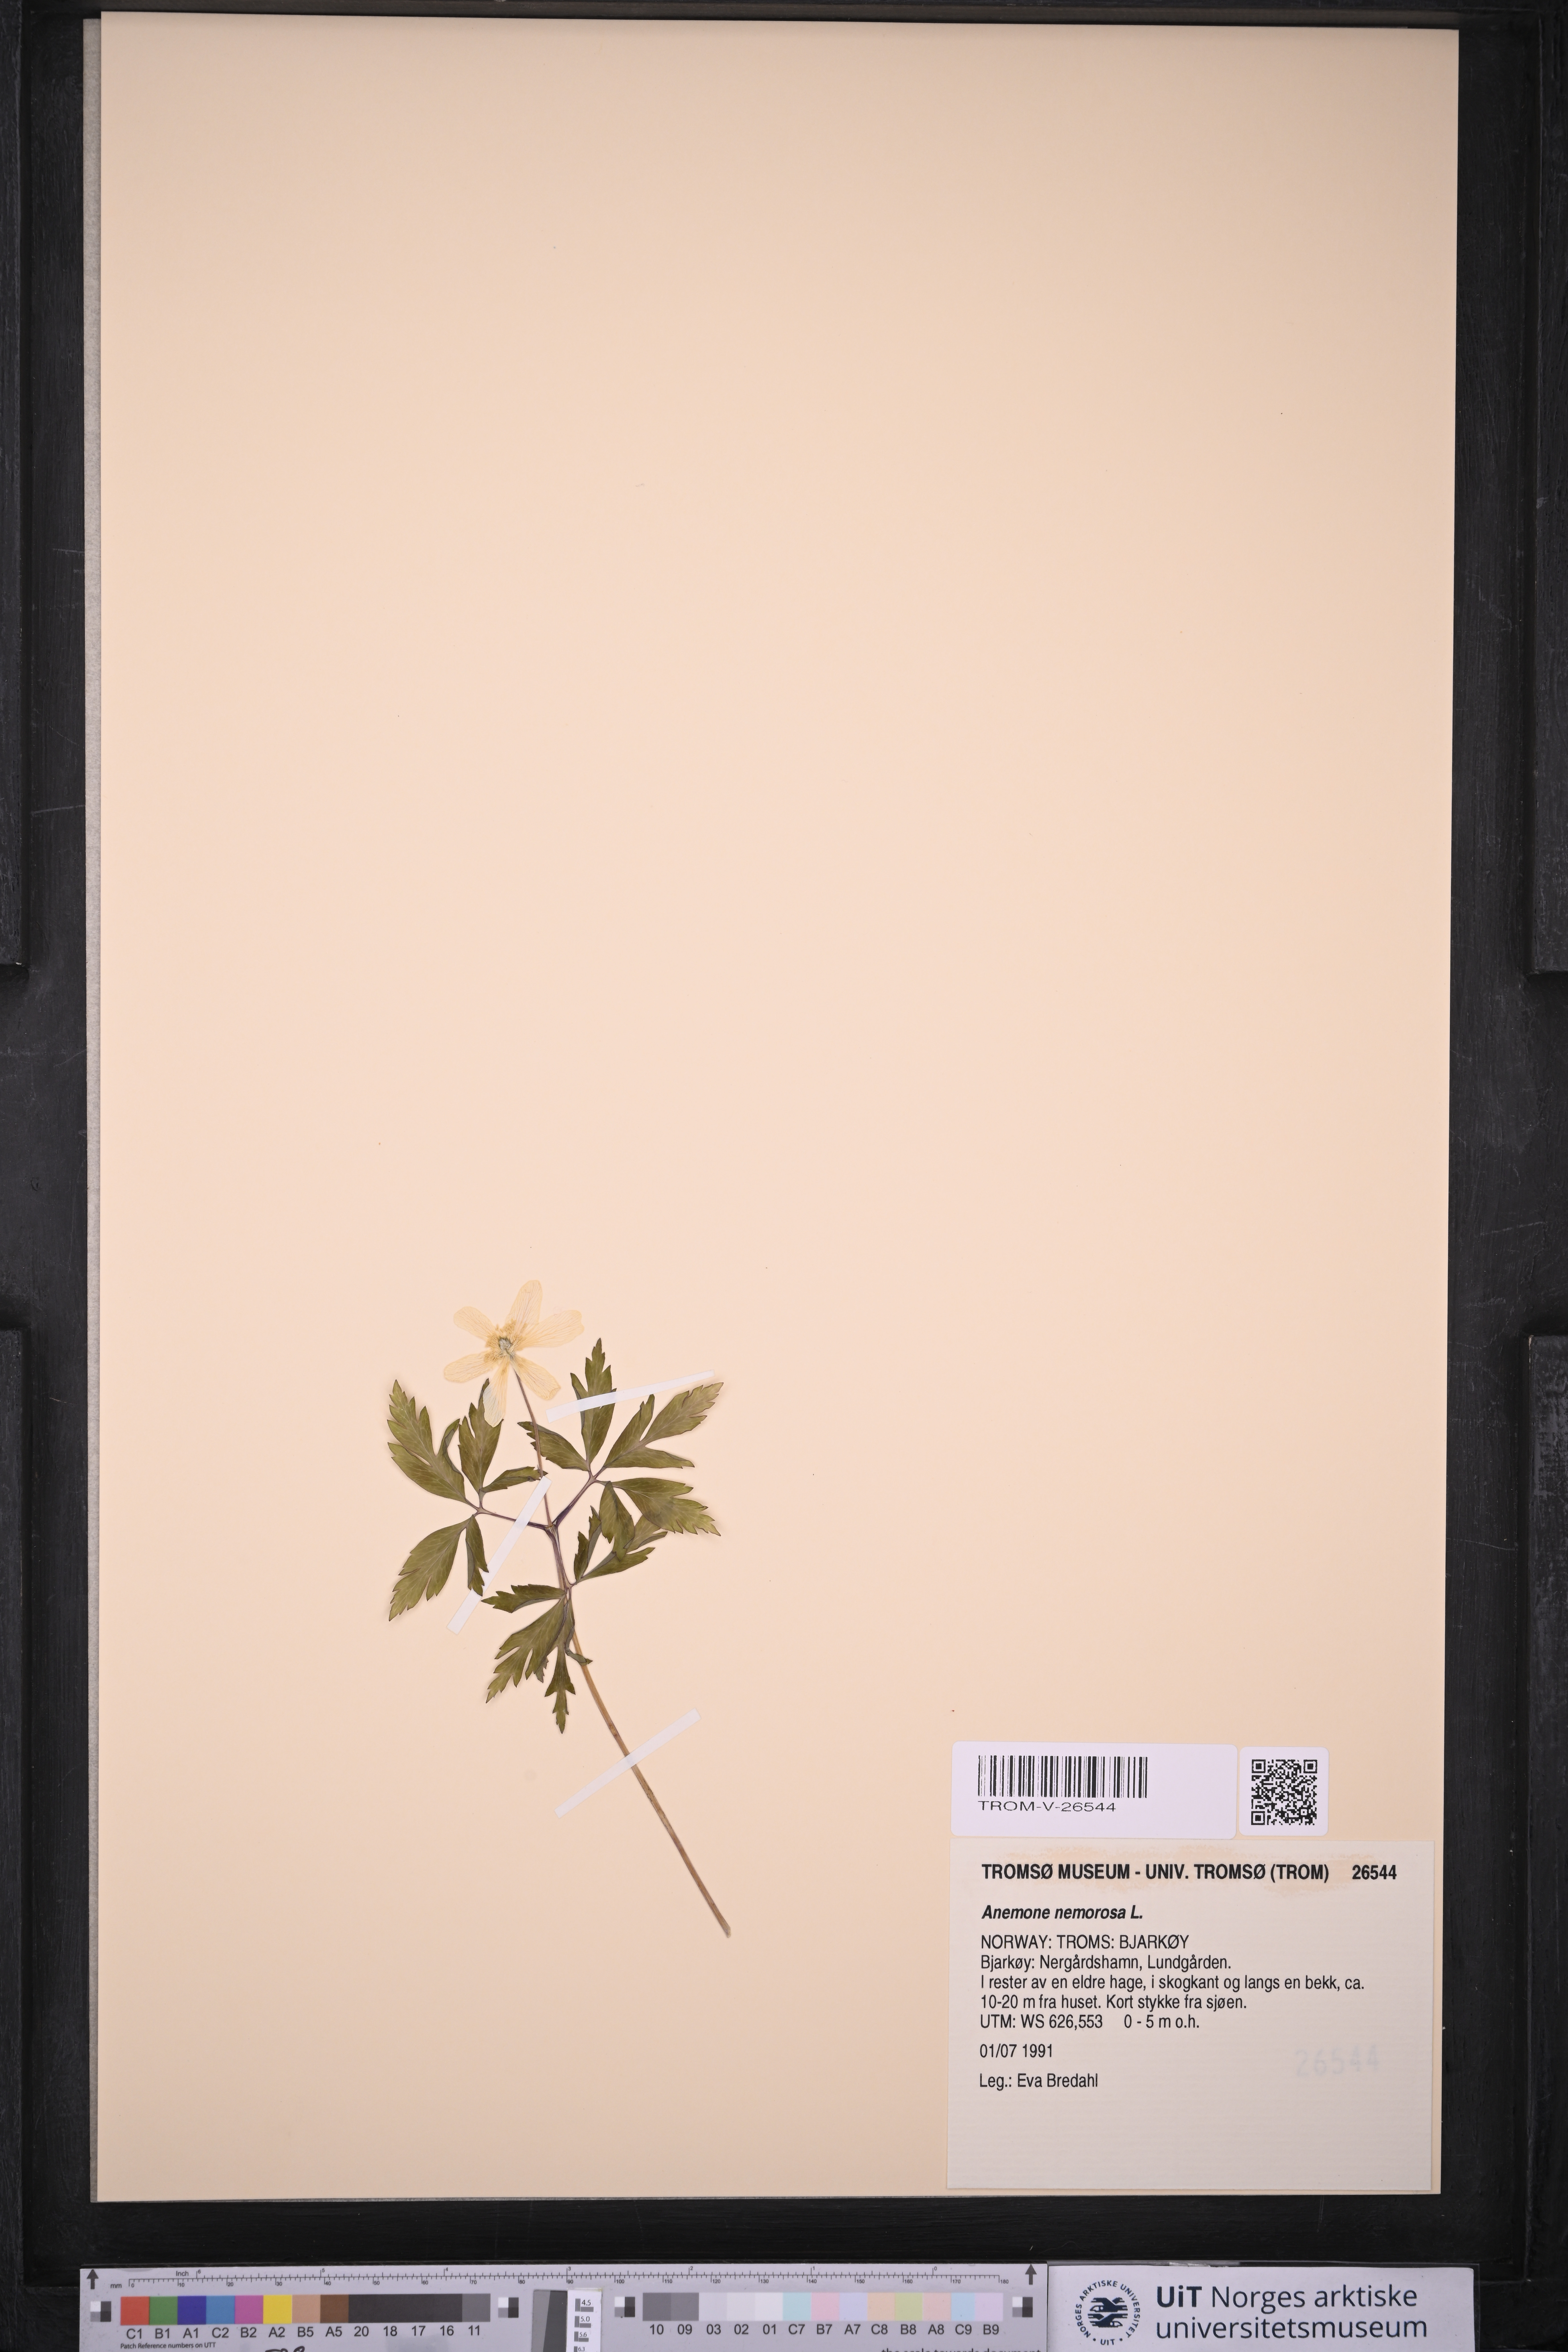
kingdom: Plantae
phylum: Tracheophyta
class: Magnoliopsida
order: Ranunculales
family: Ranunculaceae
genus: Anemone
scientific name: Anemone nemorosa
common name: Wood anemone
